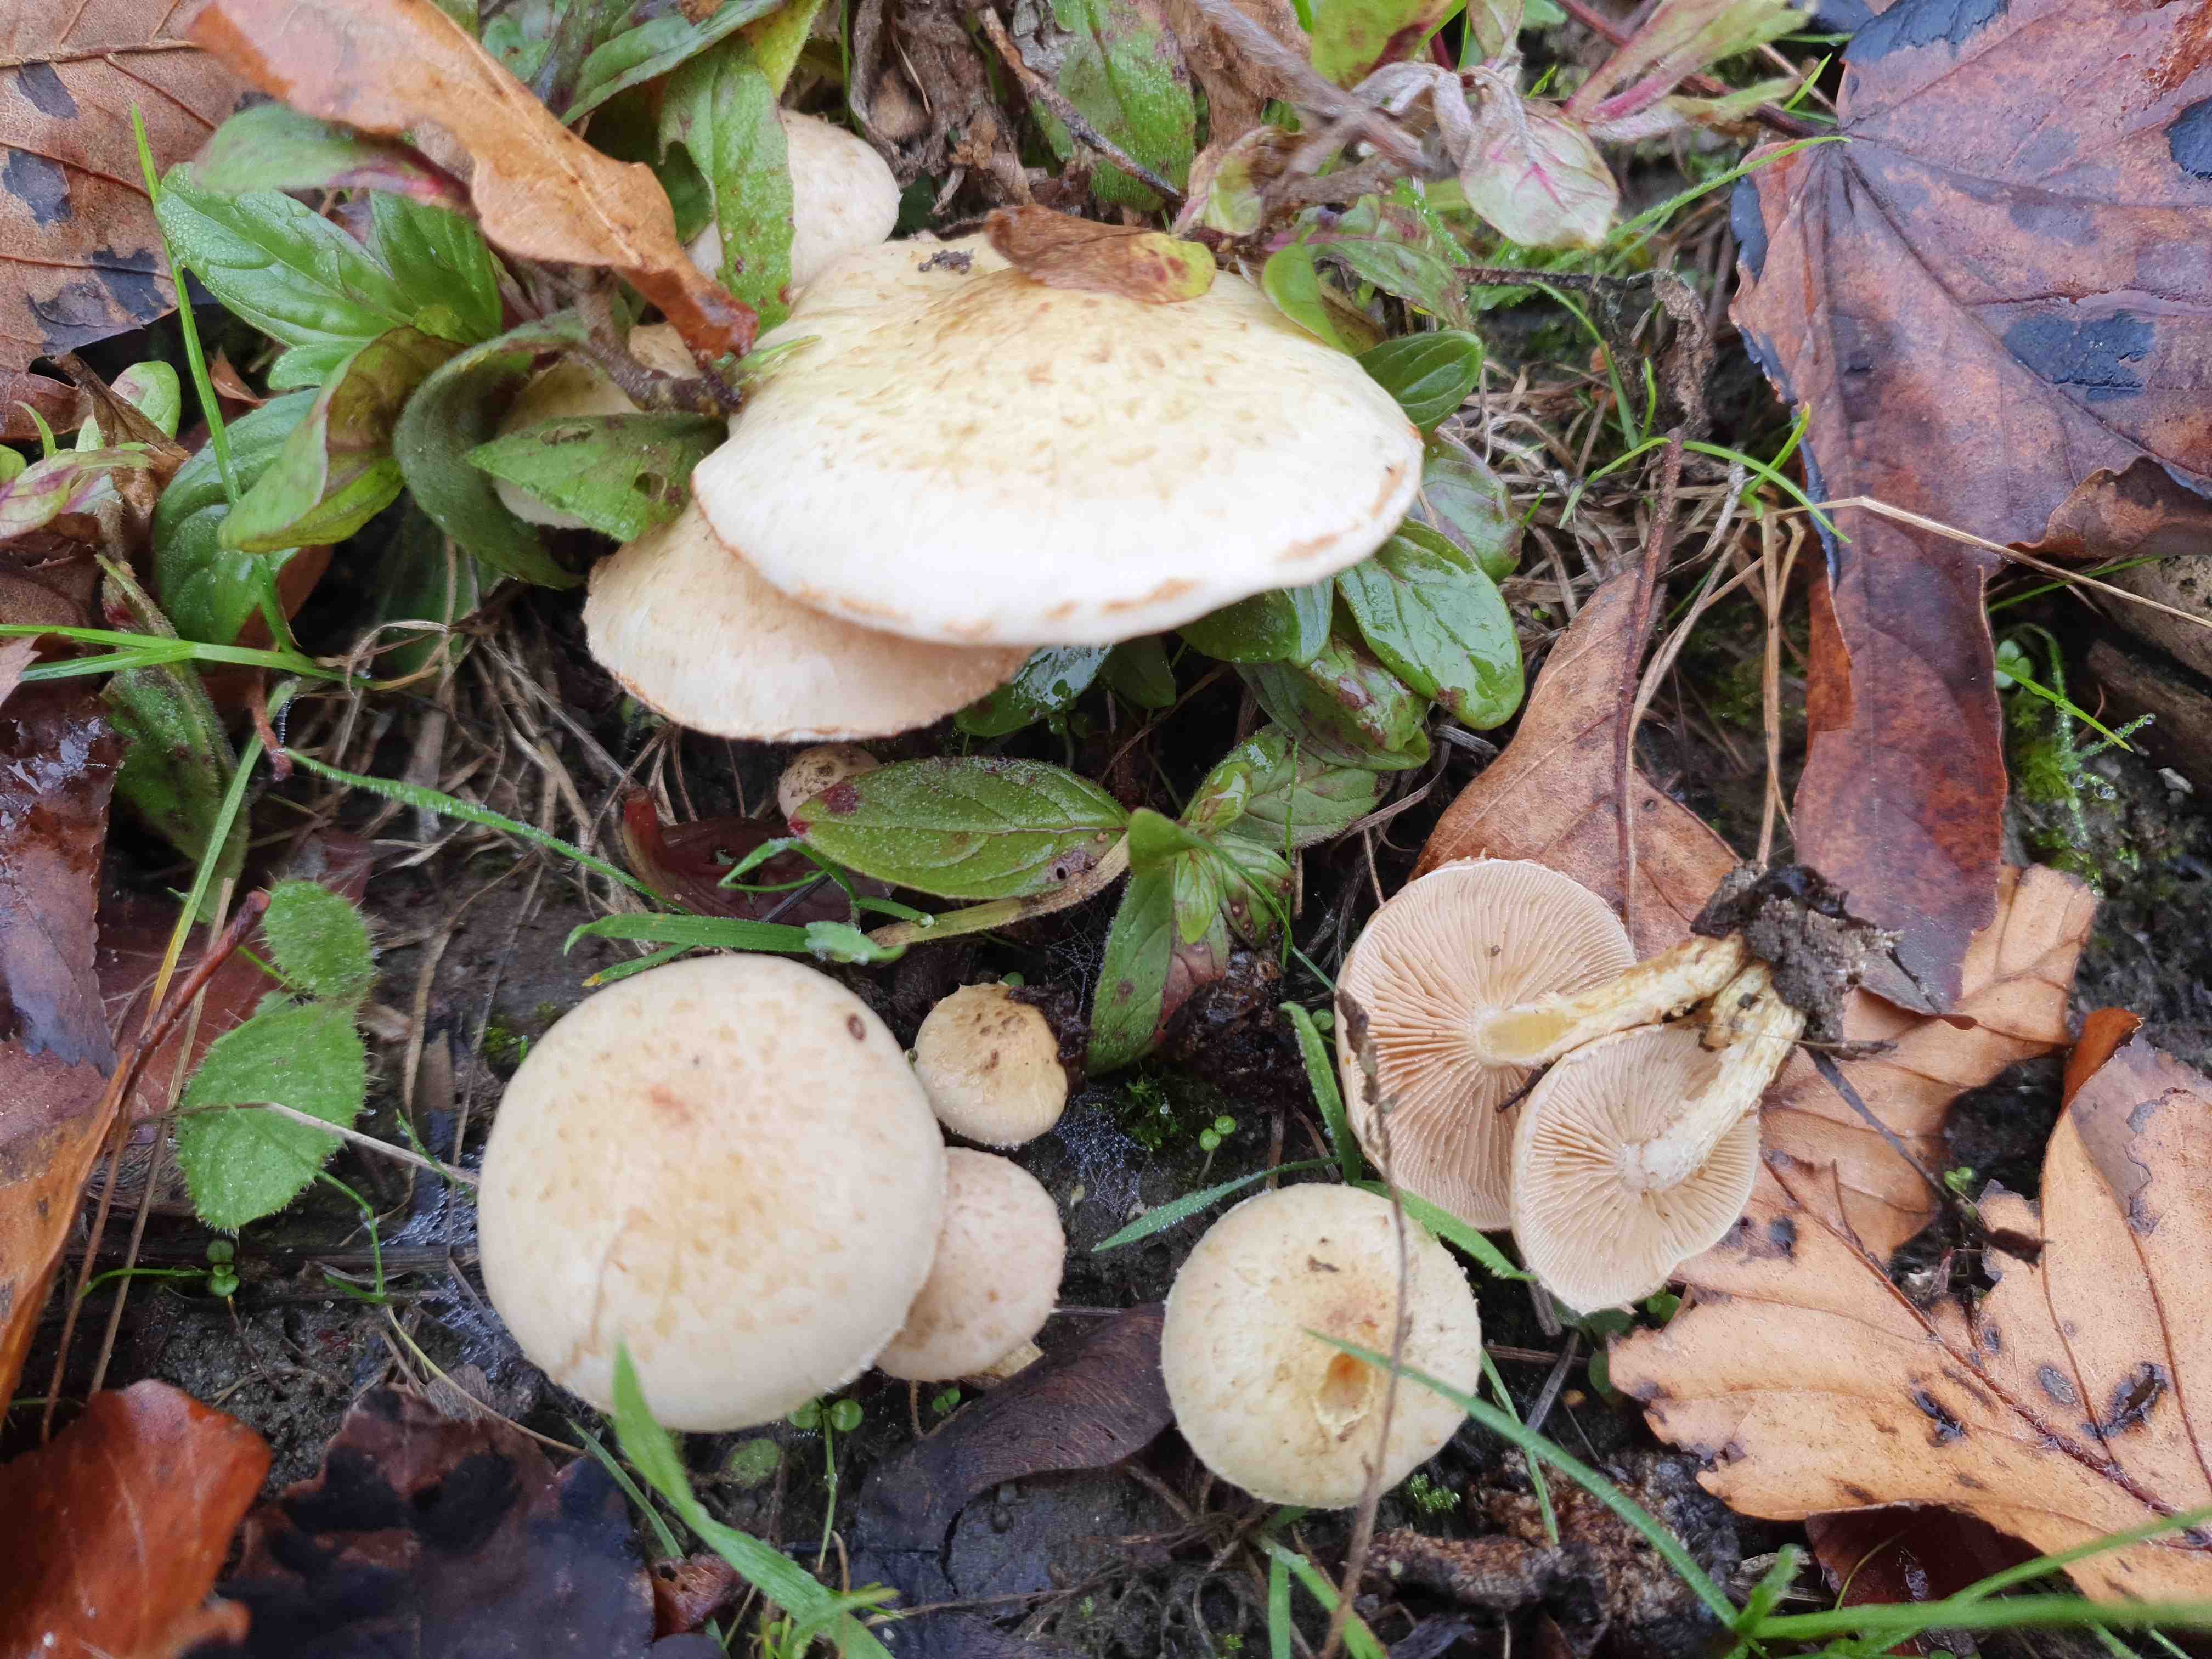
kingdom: Fungi
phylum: Basidiomycota
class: Agaricomycetes
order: Agaricales
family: Strophariaceae
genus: Pholiota
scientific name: Pholiota gummosa
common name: grøngul skælhat
